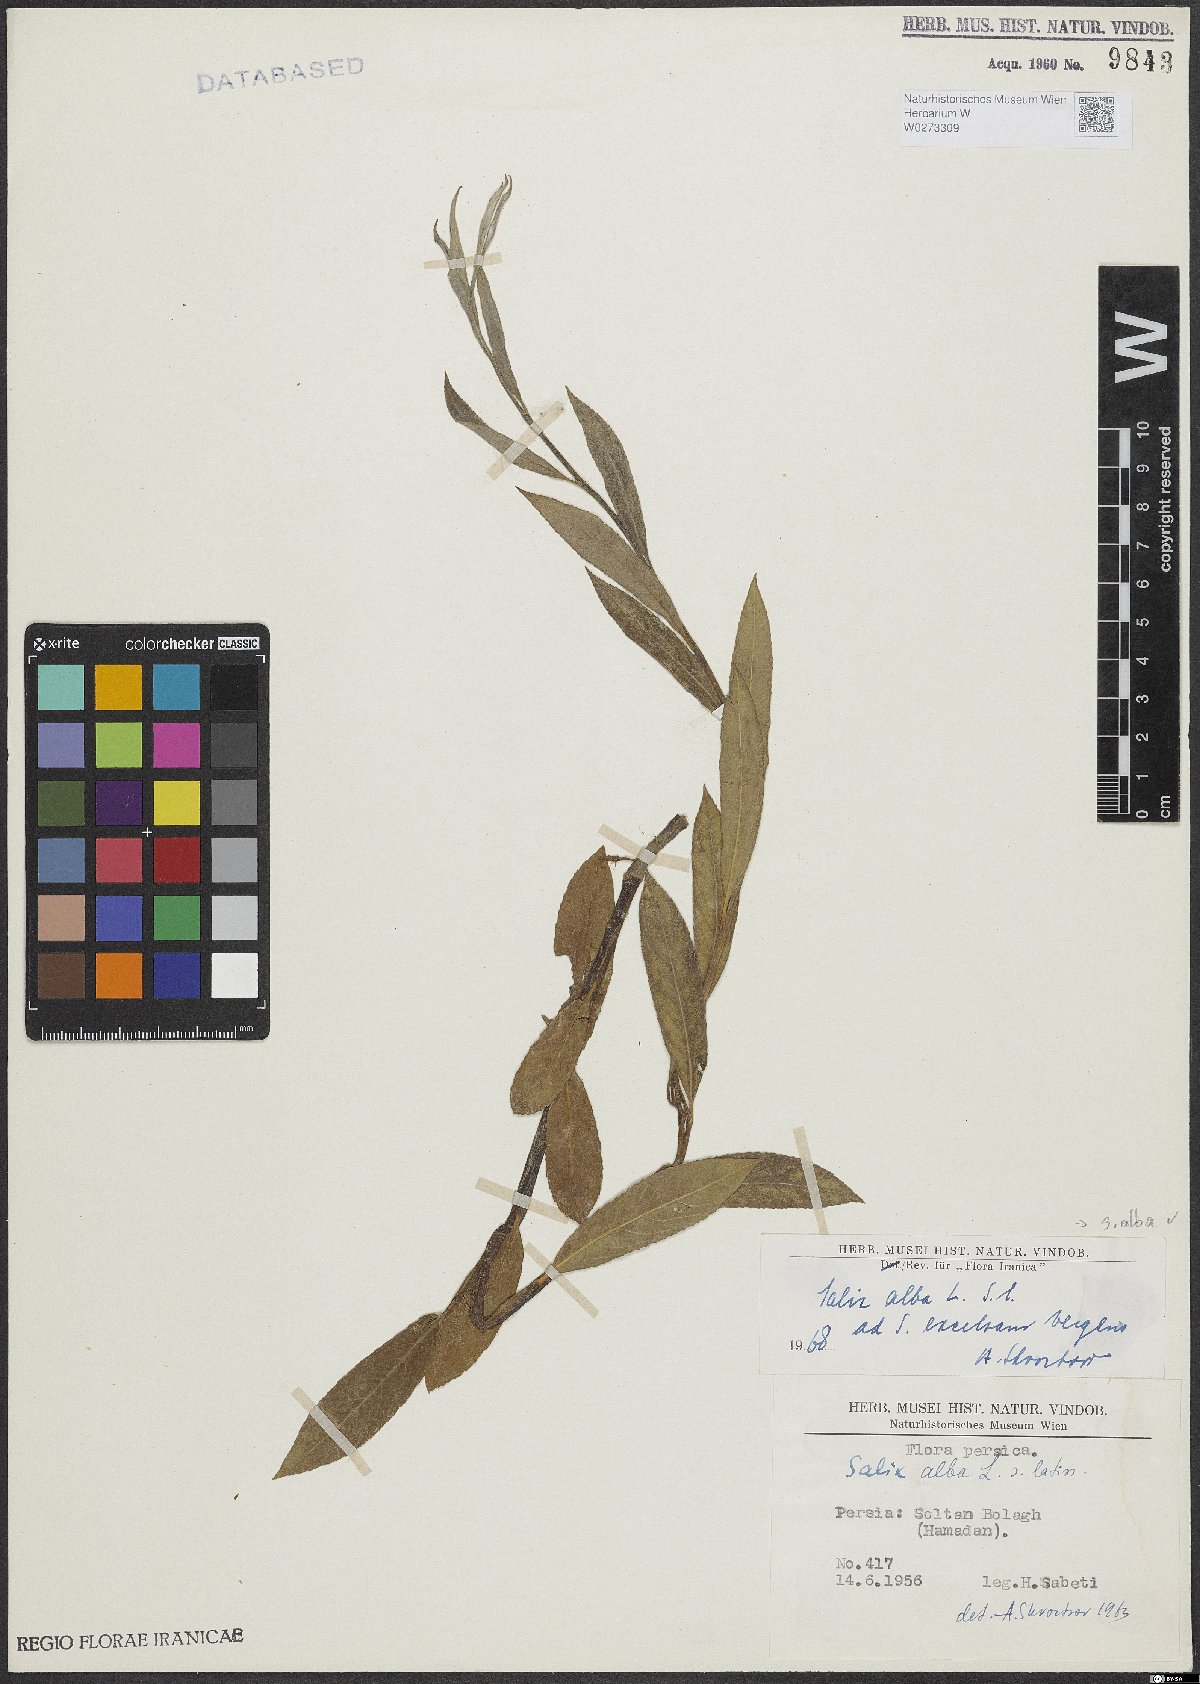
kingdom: Plantae
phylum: Tracheophyta
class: Magnoliopsida
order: Malpighiales
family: Salicaceae
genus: Salix
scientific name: Salix alba
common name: White willow
